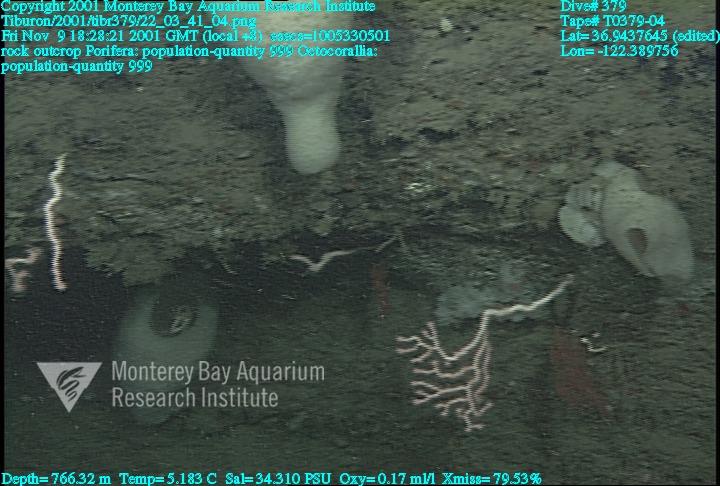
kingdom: Animalia
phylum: Porifera
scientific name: Porifera
